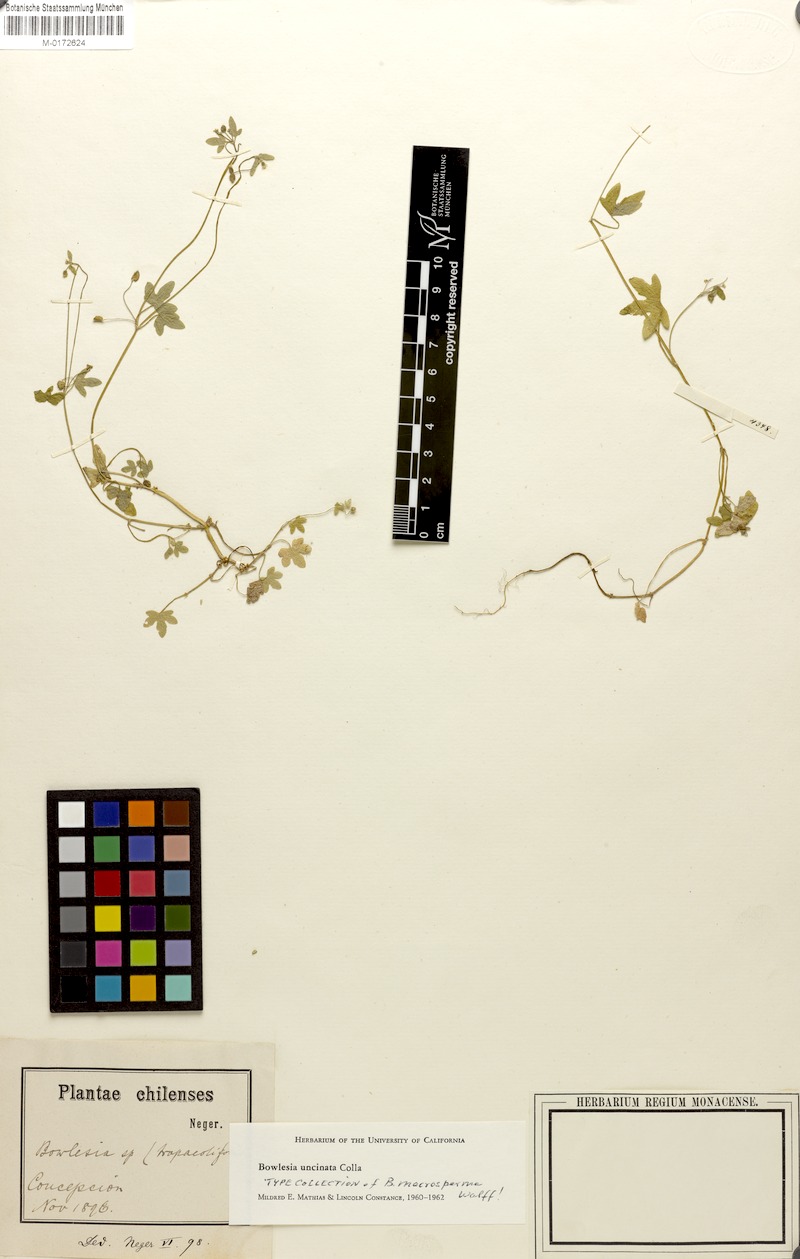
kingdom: Plantae
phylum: Tracheophyta
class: Magnoliopsida
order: Apiales
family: Apiaceae
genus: Bowlesia
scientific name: Bowlesia uncinata
